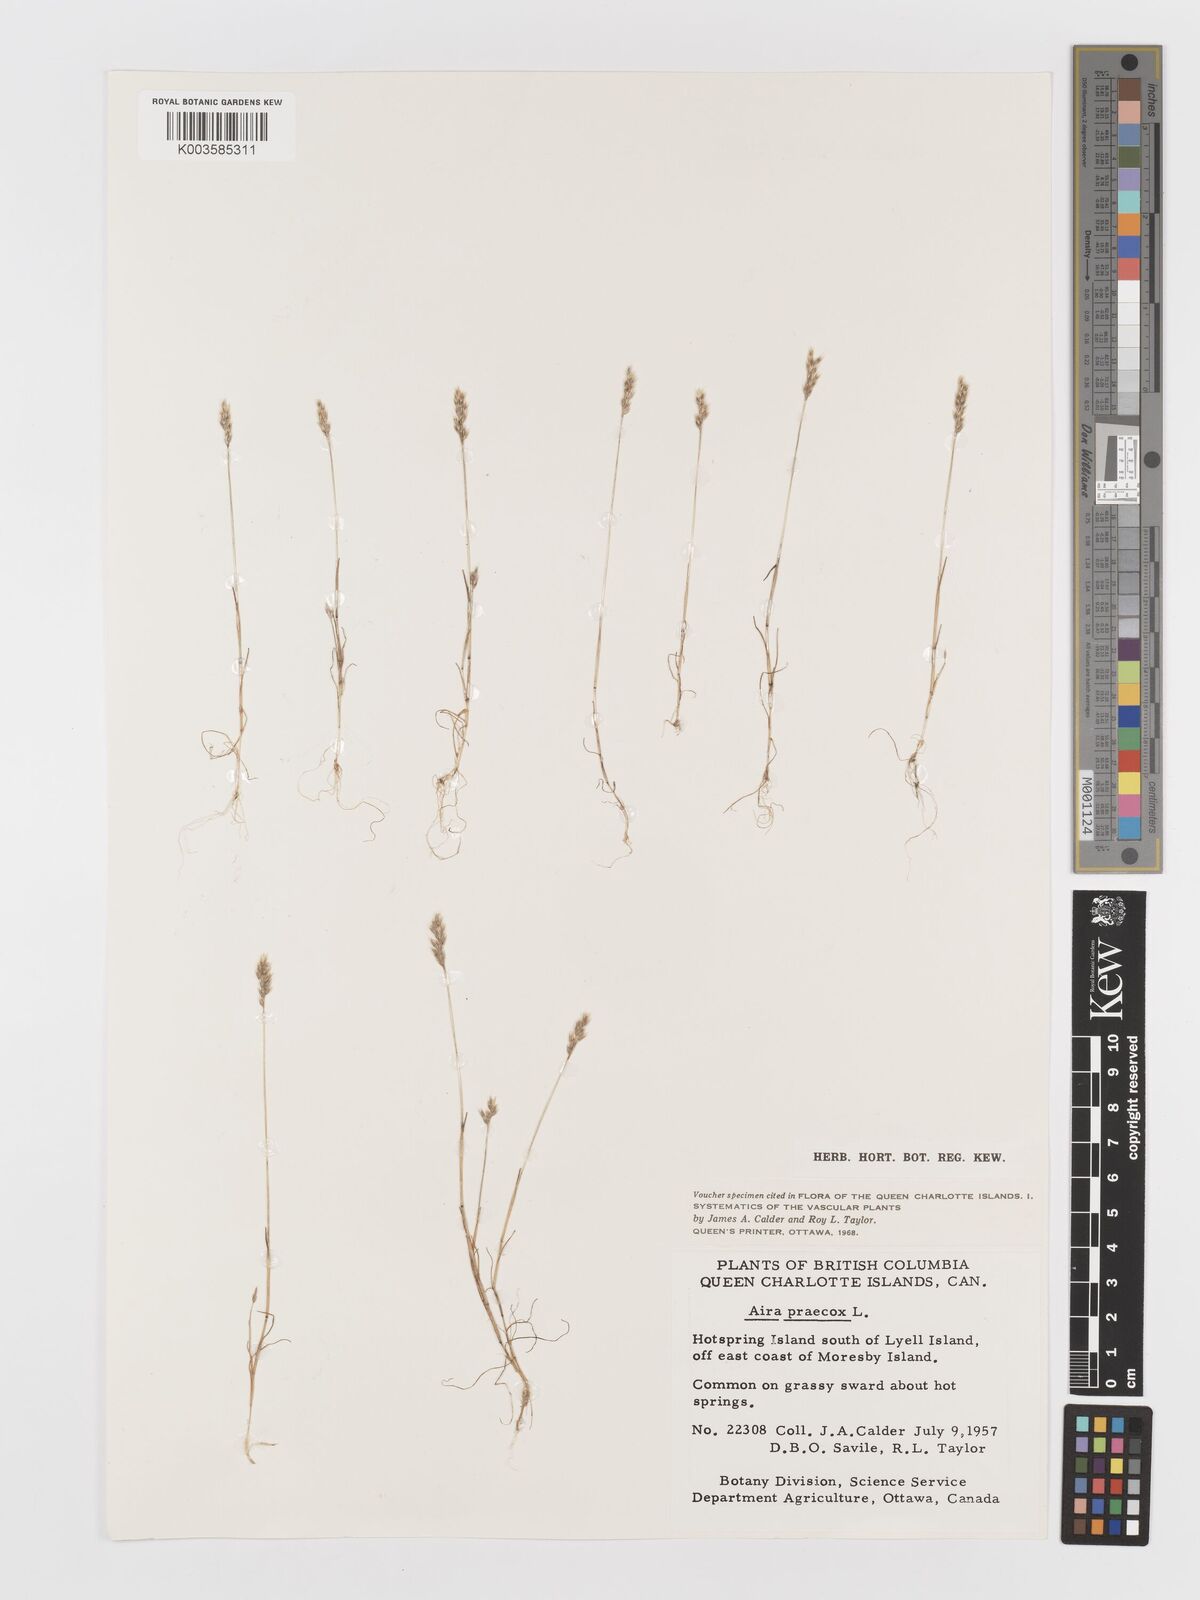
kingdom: Plantae
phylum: Tracheophyta
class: Liliopsida
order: Poales
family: Poaceae
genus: Aira
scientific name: Aira praecox
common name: Early hair-grass
